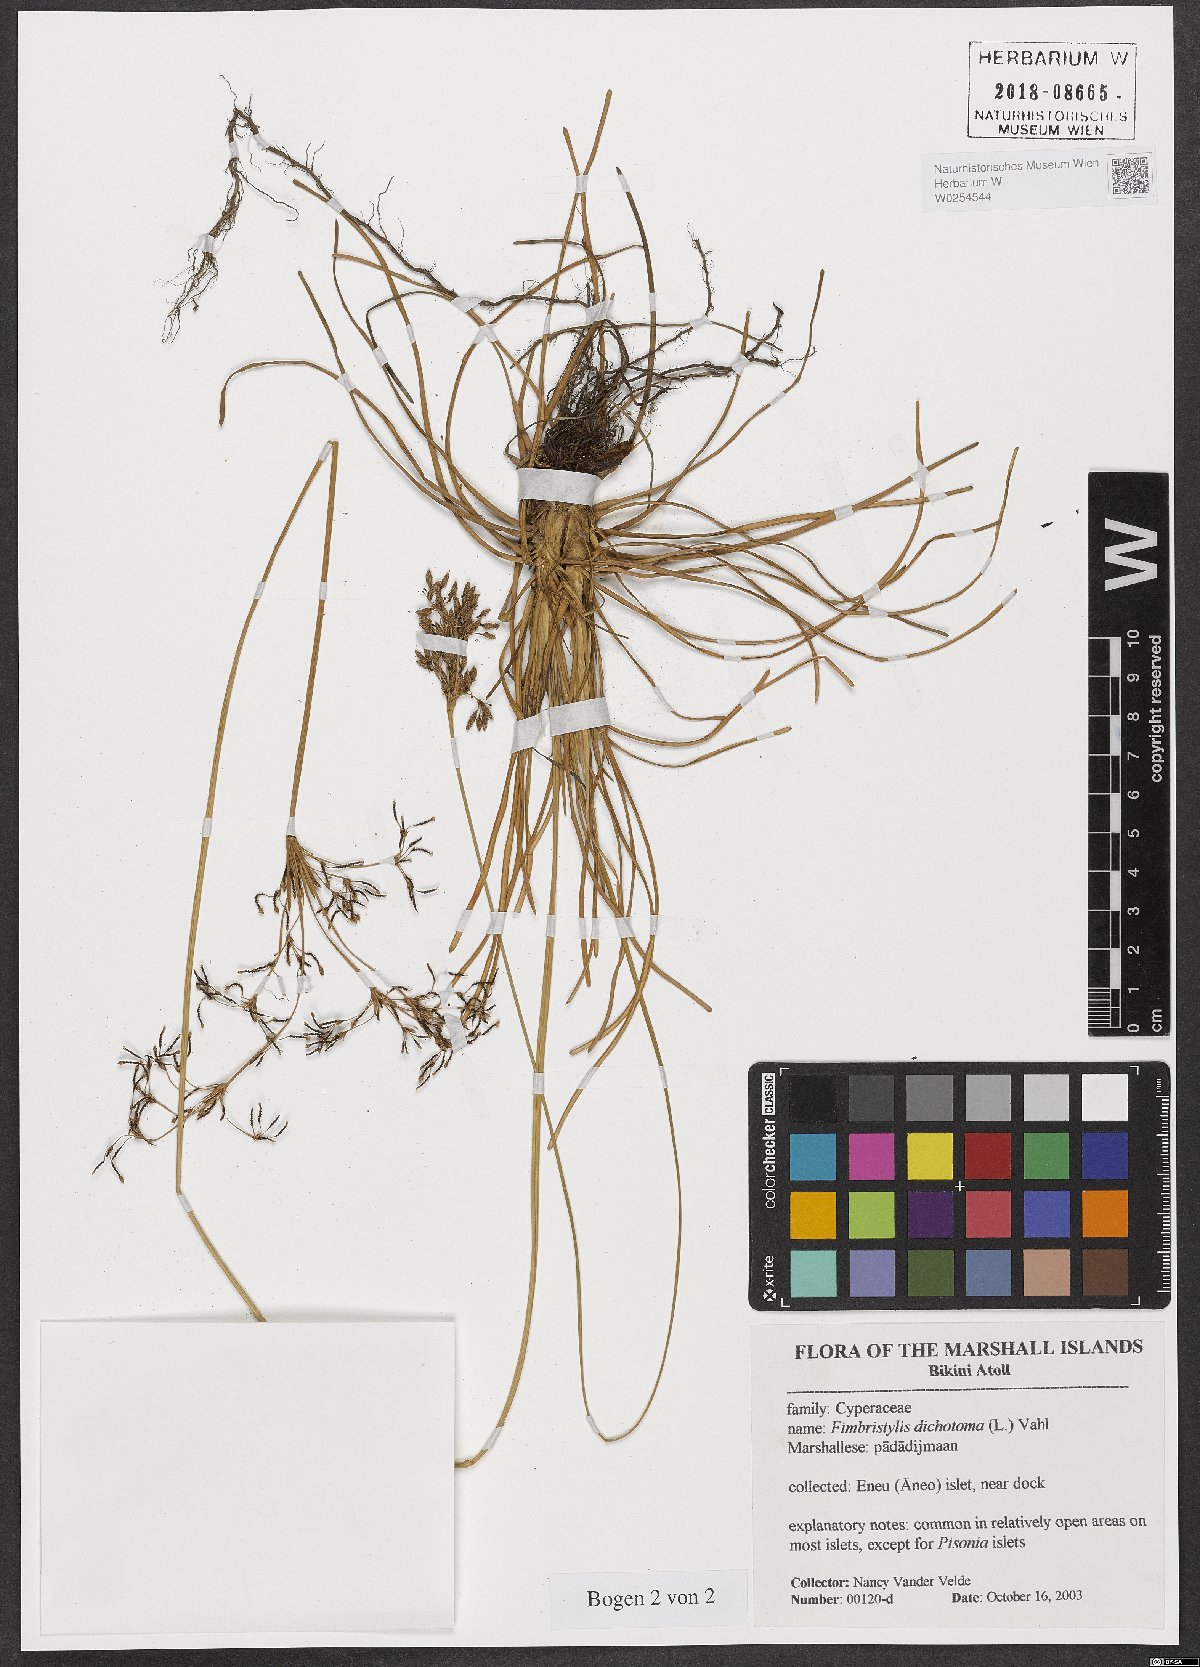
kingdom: Plantae
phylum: Tracheophyta
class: Liliopsida
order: Poales
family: Cyperaceae
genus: Fimbristylis
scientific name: Fimbristylis dichotoma
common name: Forked fimbry
